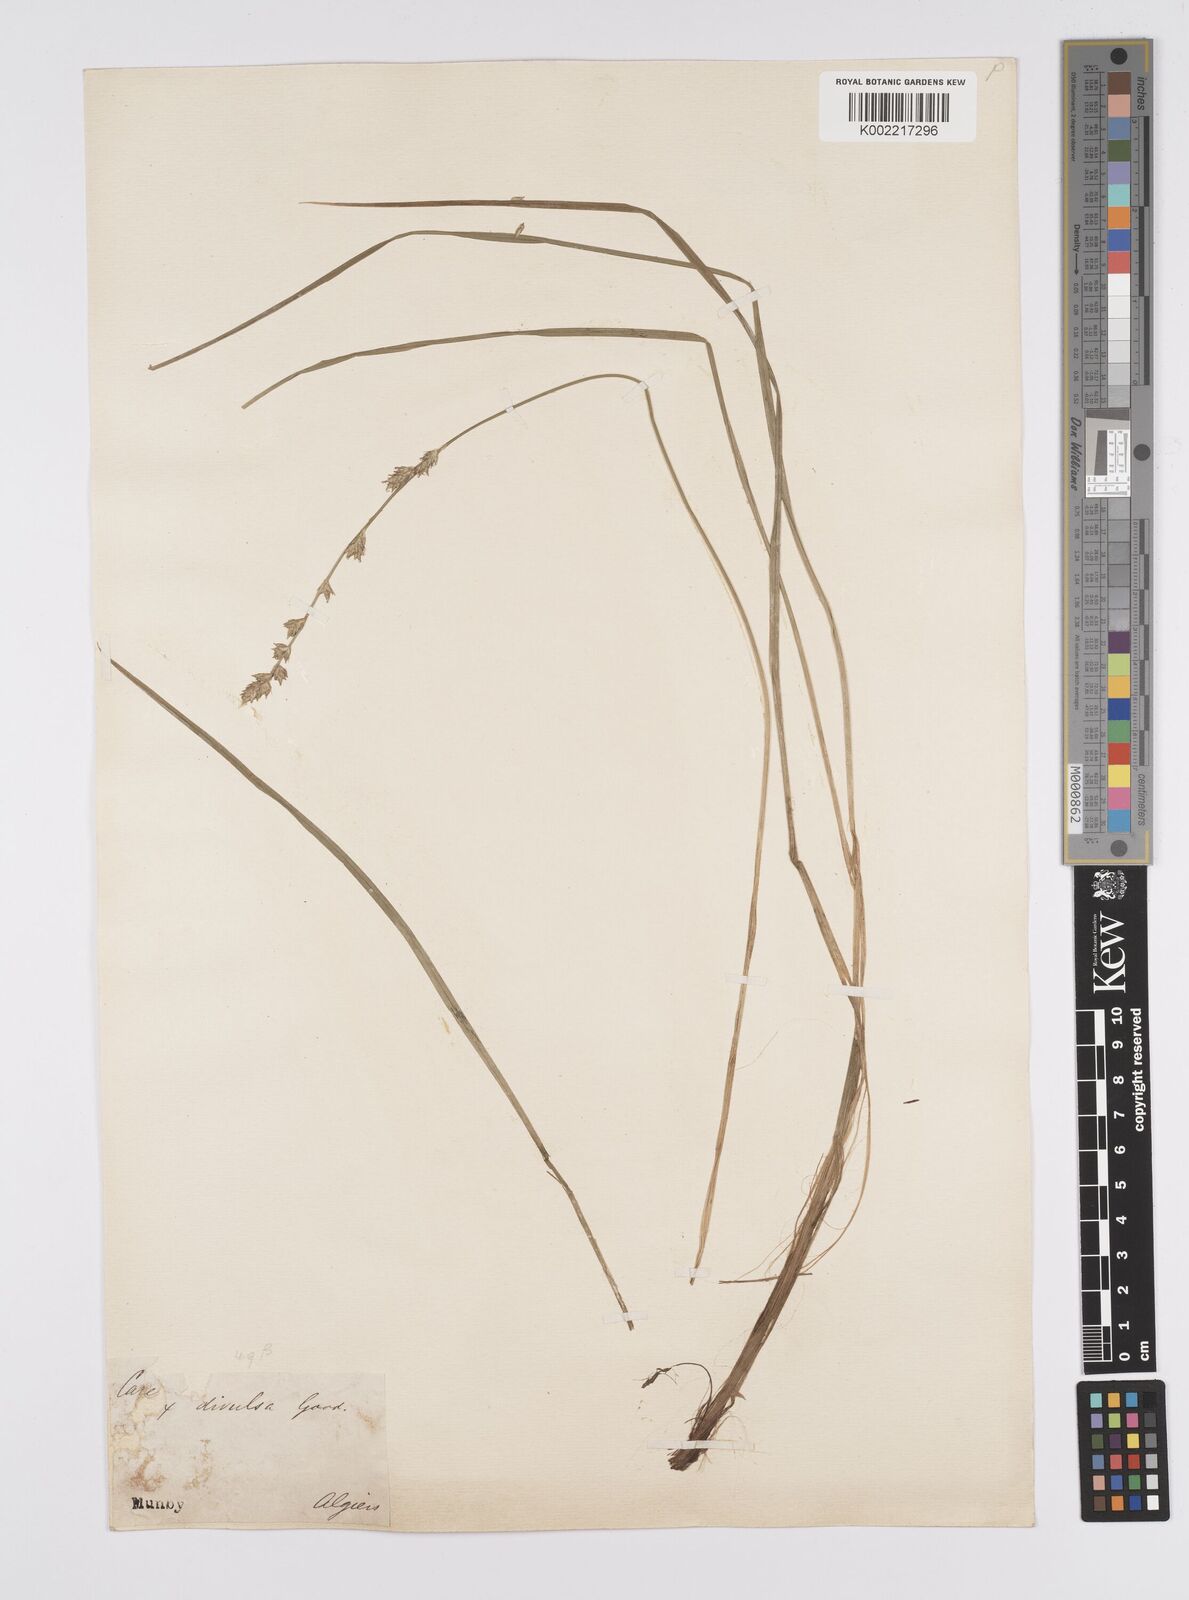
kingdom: Plantae
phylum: Tracheophyta
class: Liliopsida
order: Poales
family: Cyperaceae
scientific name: Cyperaceae
